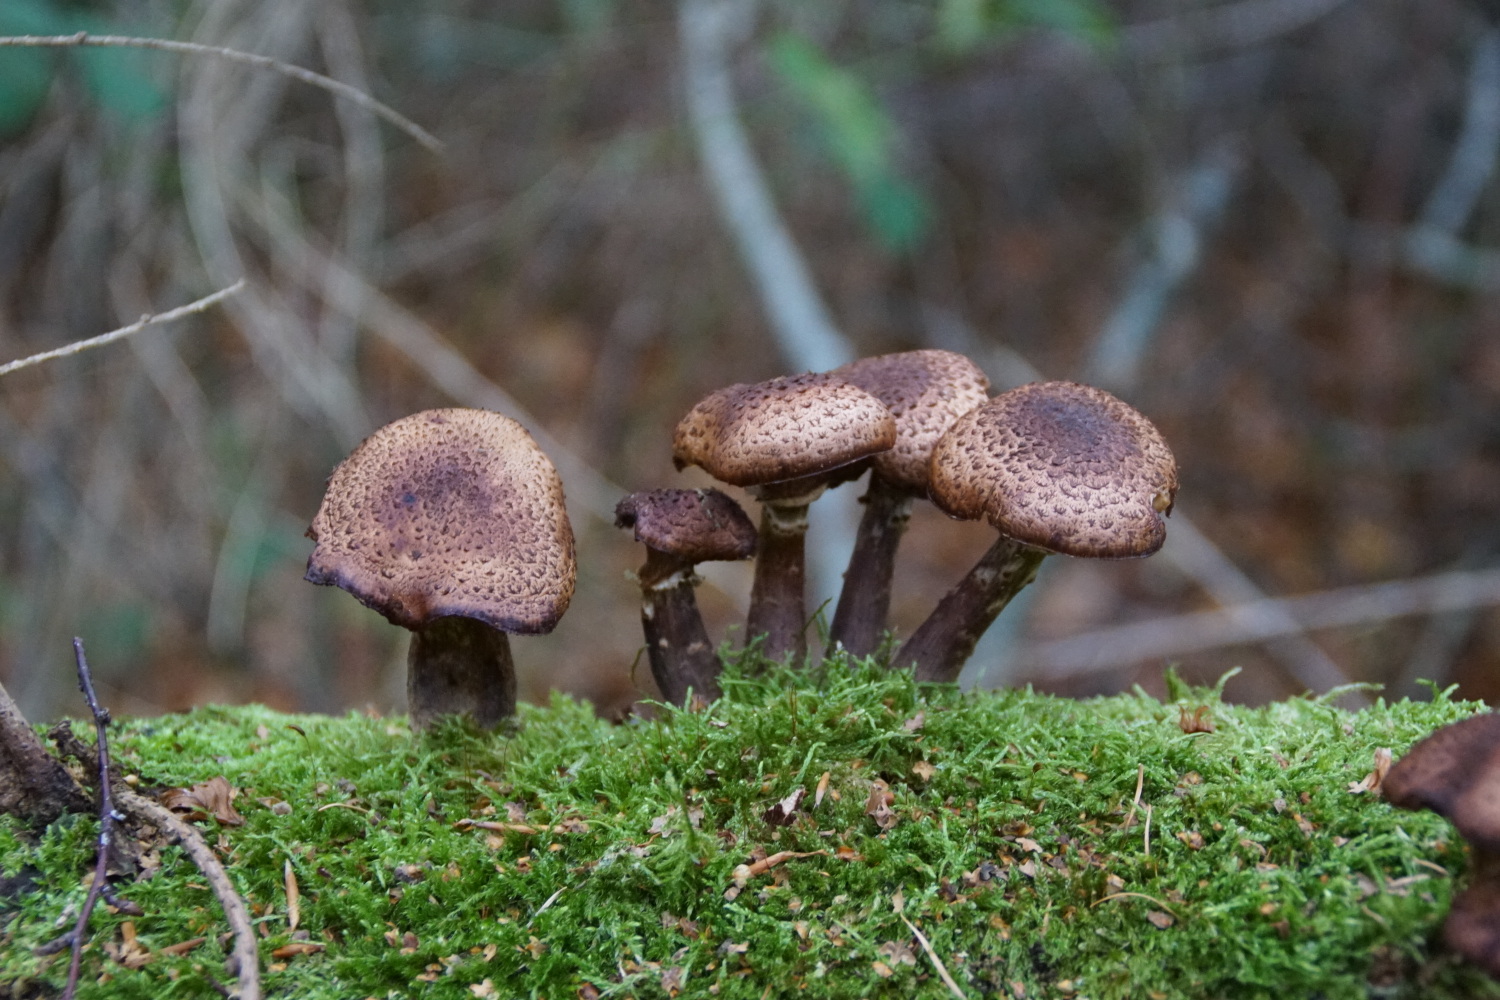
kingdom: Fungi
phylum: Basidiomycota
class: Agaricomycetes
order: Agaricales
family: Physalacriaceae
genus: Armillaria
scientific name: Armillaria ostoyae
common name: mørk honningsvamp
